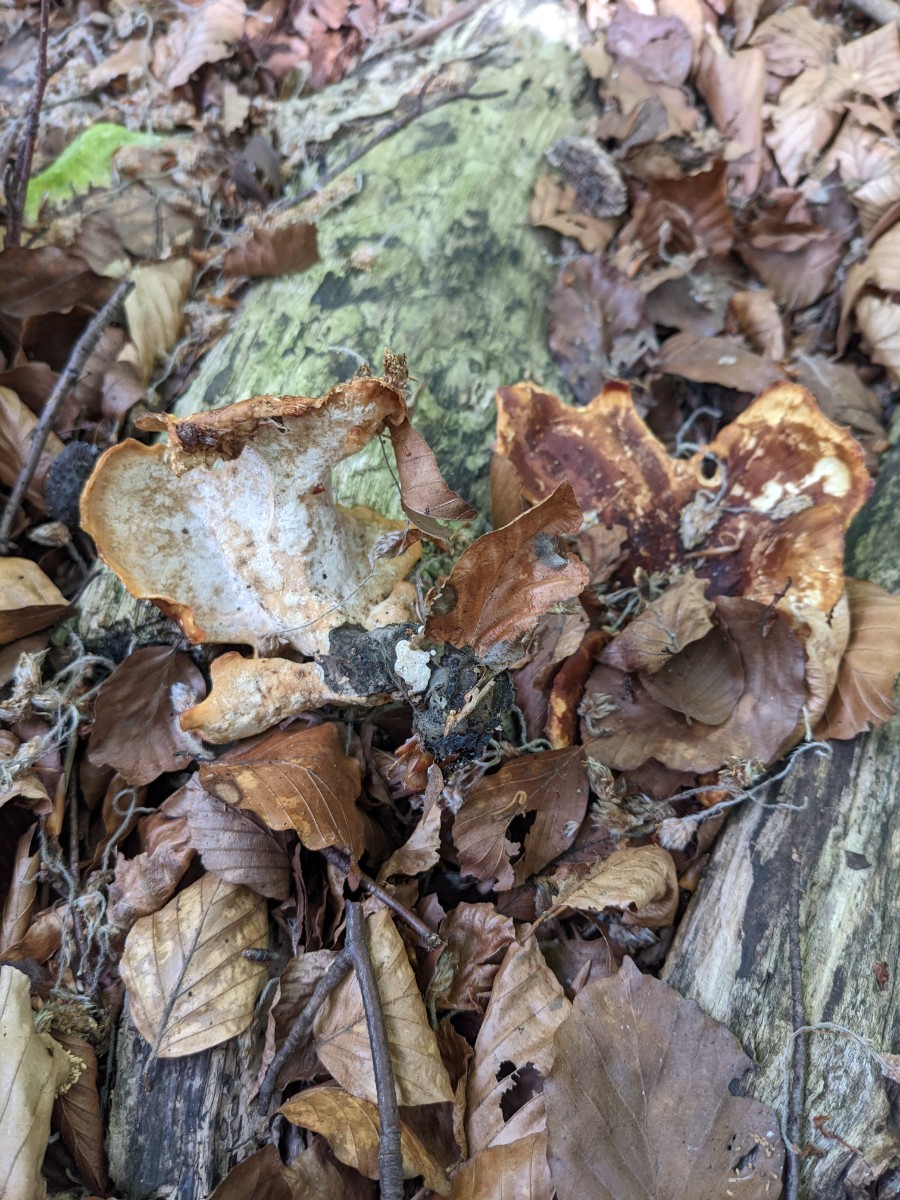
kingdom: Fungi
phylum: Basidiomycota
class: Agaricomycetes
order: Polyporales
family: Polyporaceae
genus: Picipes
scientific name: Picipes badius
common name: kastaniebrun stilkporesvamp
